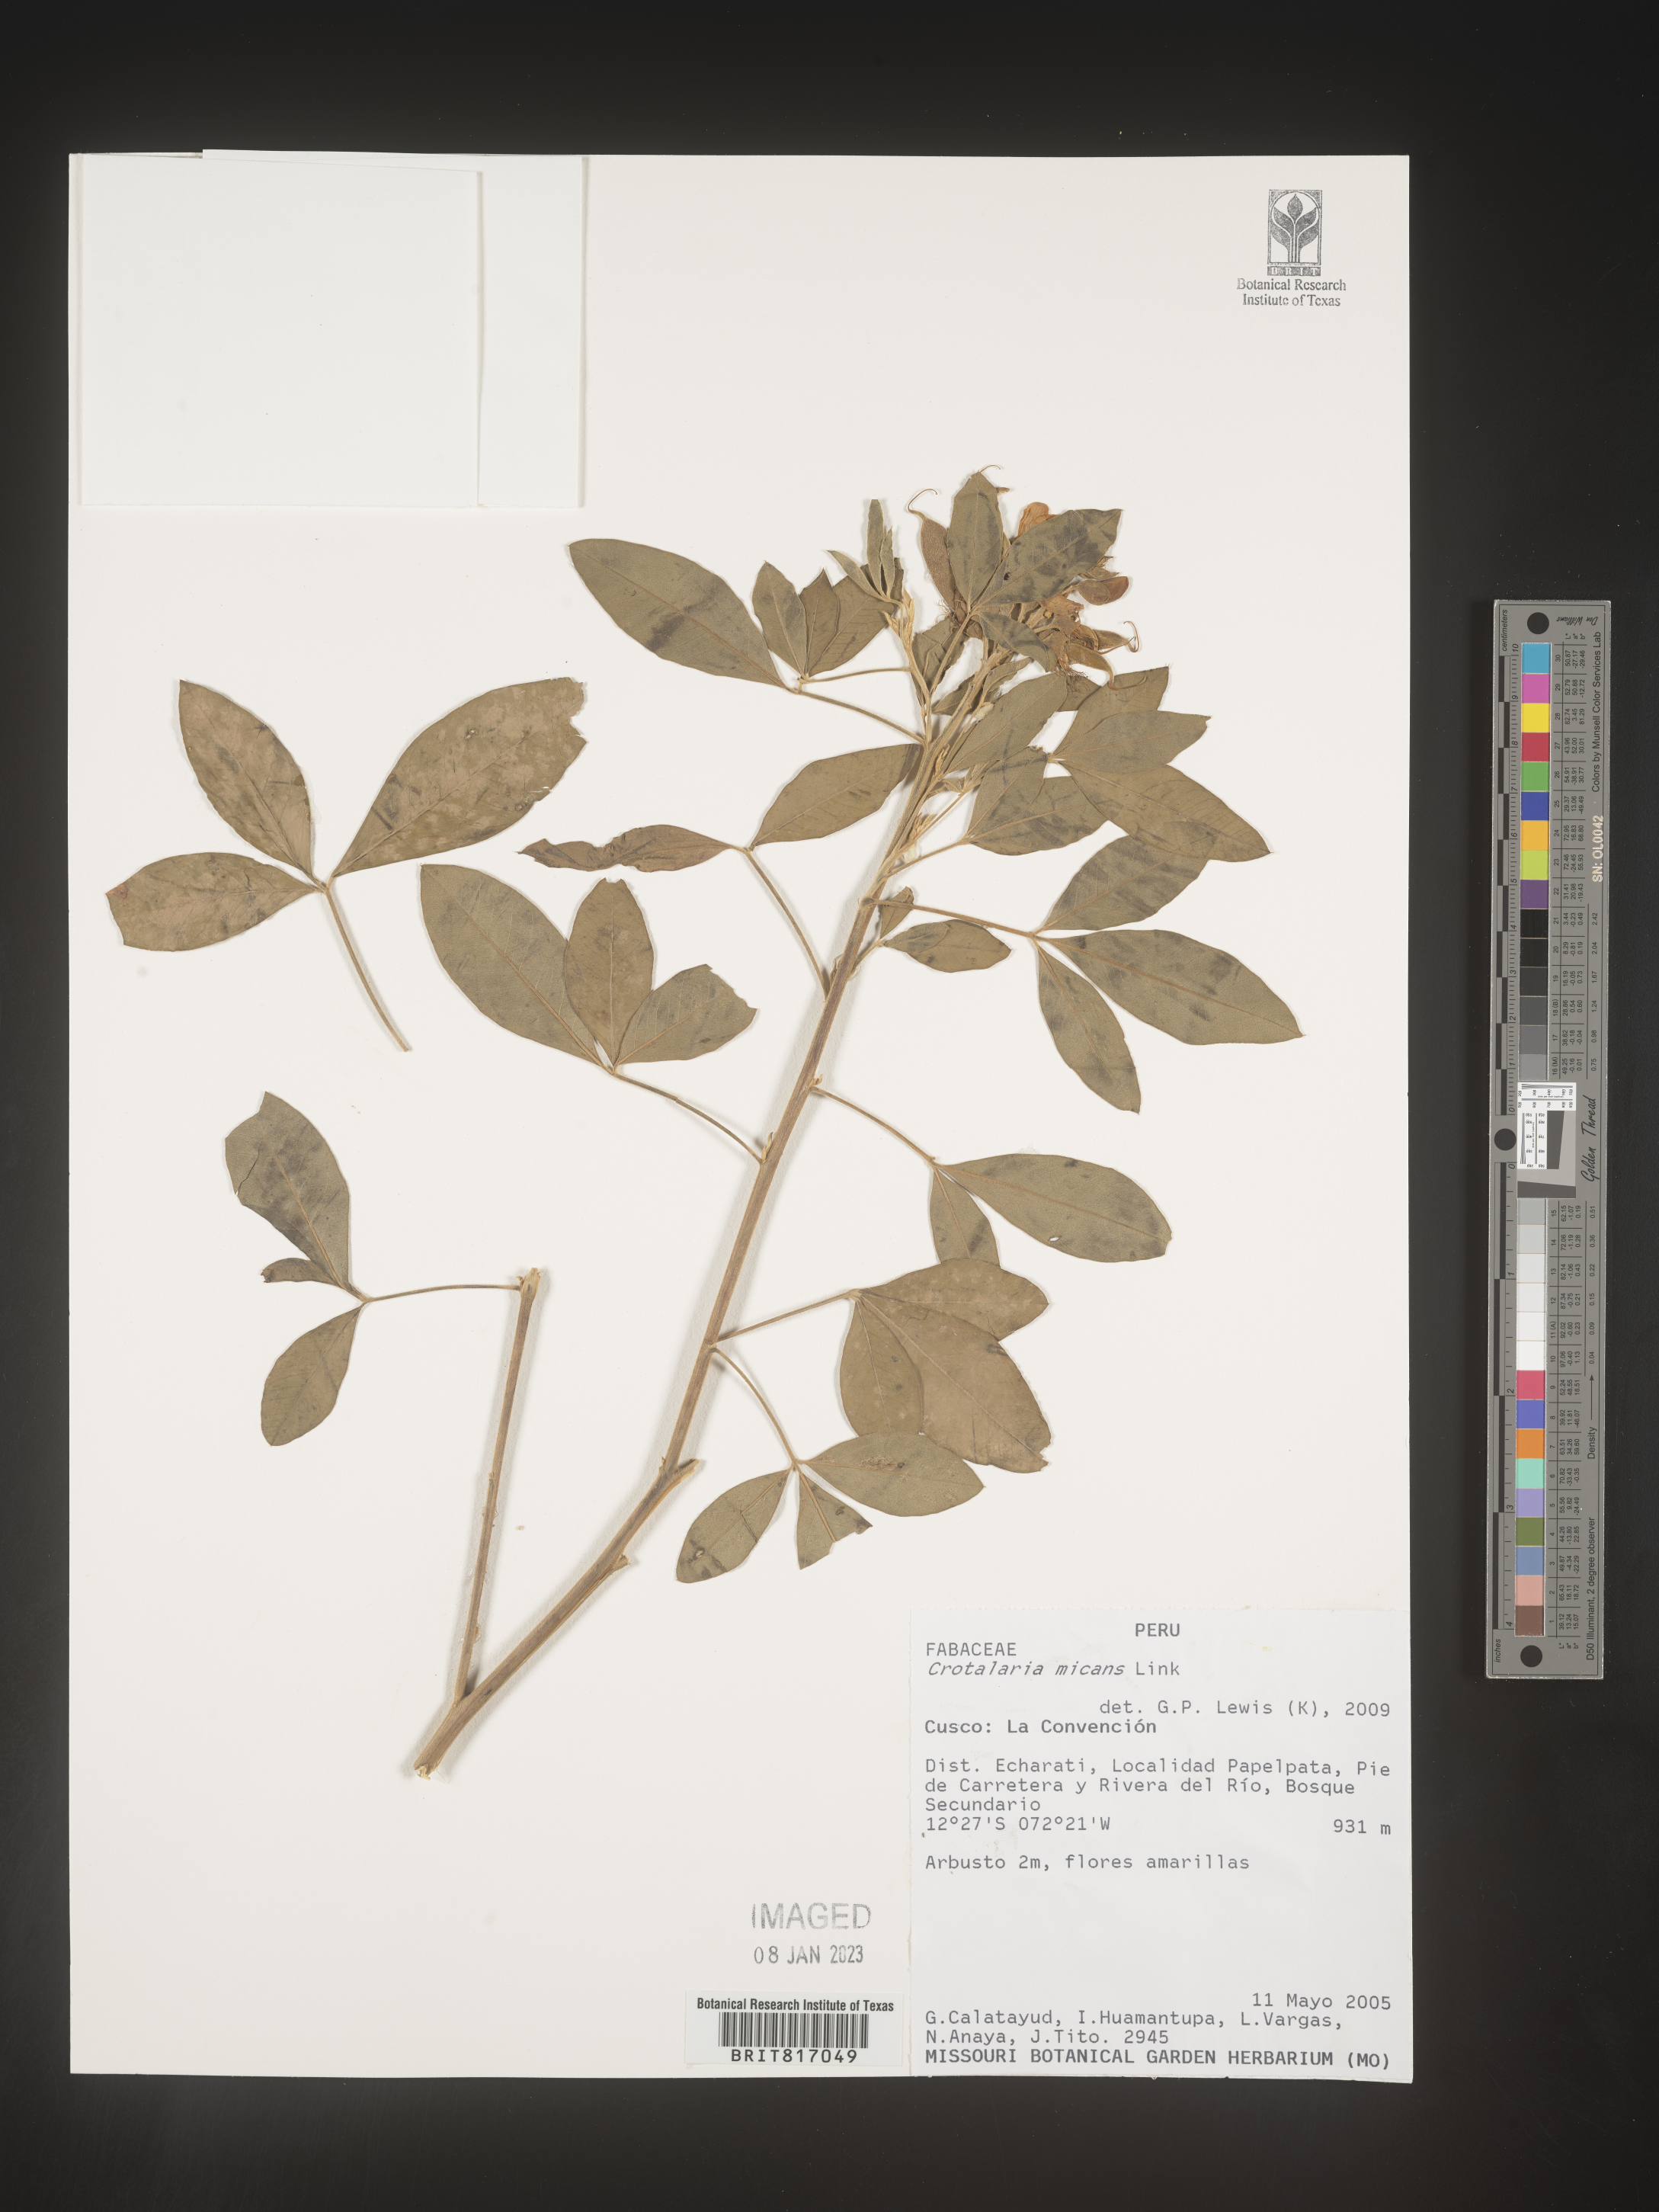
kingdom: Plantae
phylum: Tracheophyta
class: Magnoliopsida
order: Fabales
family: Fabaceae
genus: Crotalaria
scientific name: Crotalaria
